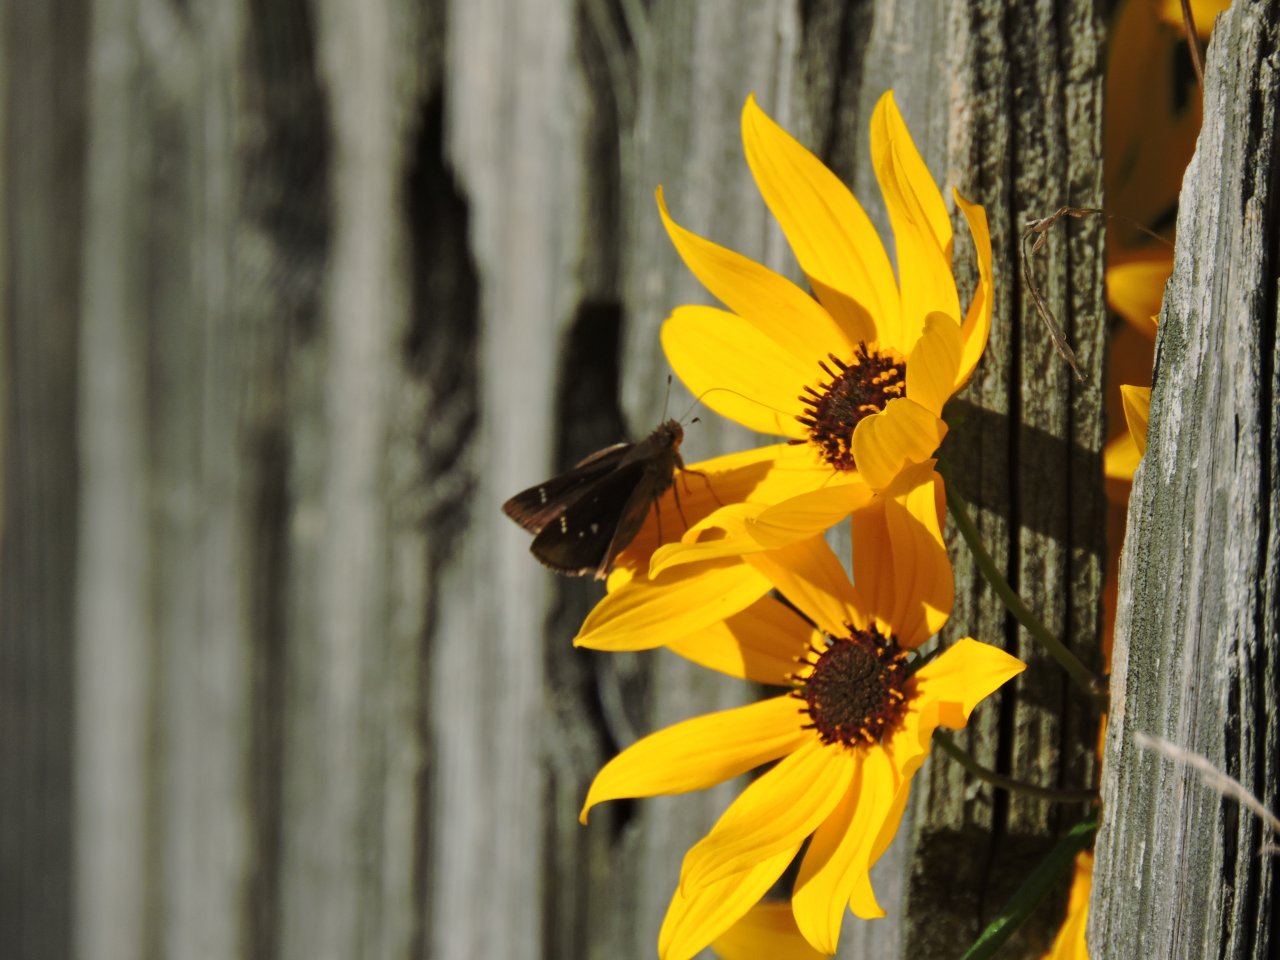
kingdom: Animalia
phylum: Arthropoda
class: Insecta
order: Lepidoptera
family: Hesperiidae
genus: Lerema
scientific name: Lerema accius
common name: Clouded Skipper
